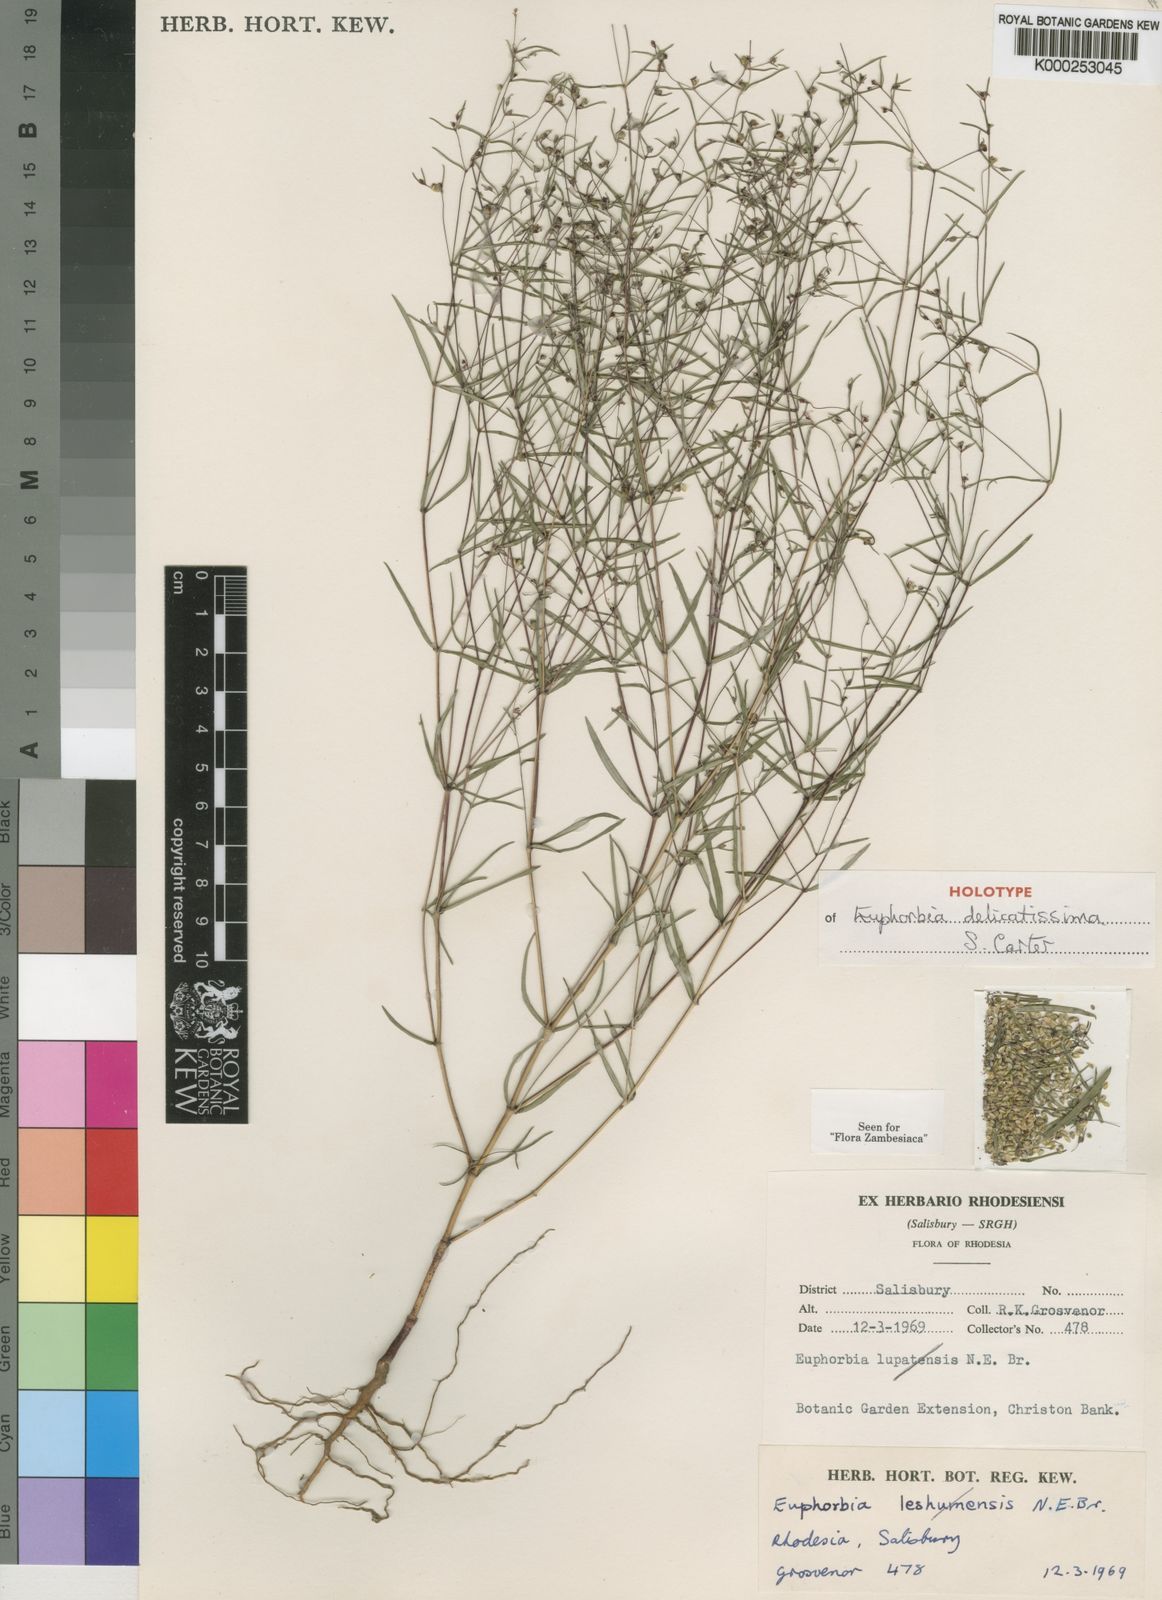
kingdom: Plantae
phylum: Tracheophyta
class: Magnoliopsida
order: Malpighiales
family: Euphorbiaceae
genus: Euphorbia
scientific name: Euphorbia delicatissima
